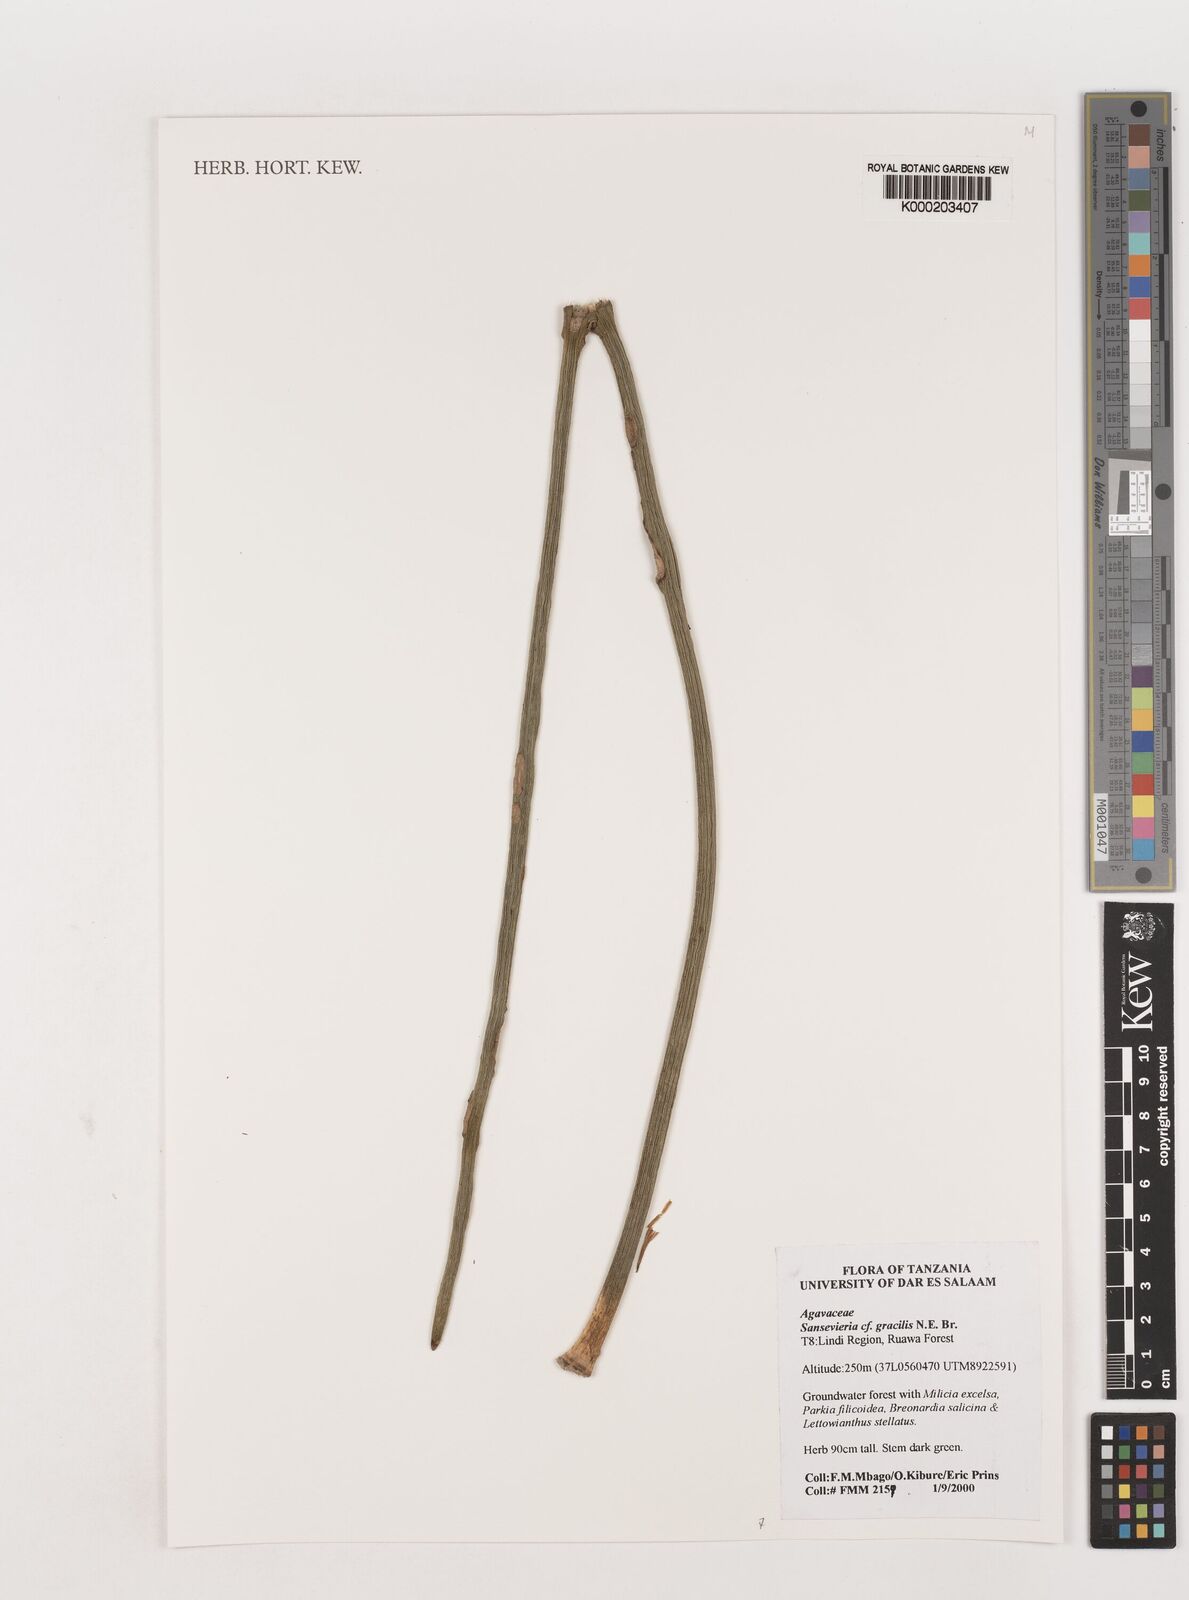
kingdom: Plantae
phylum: Tracheophyta
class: Liliopsida
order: Asparagales
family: Asparagaceae
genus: Dracaena
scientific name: Dracaena serpenta
